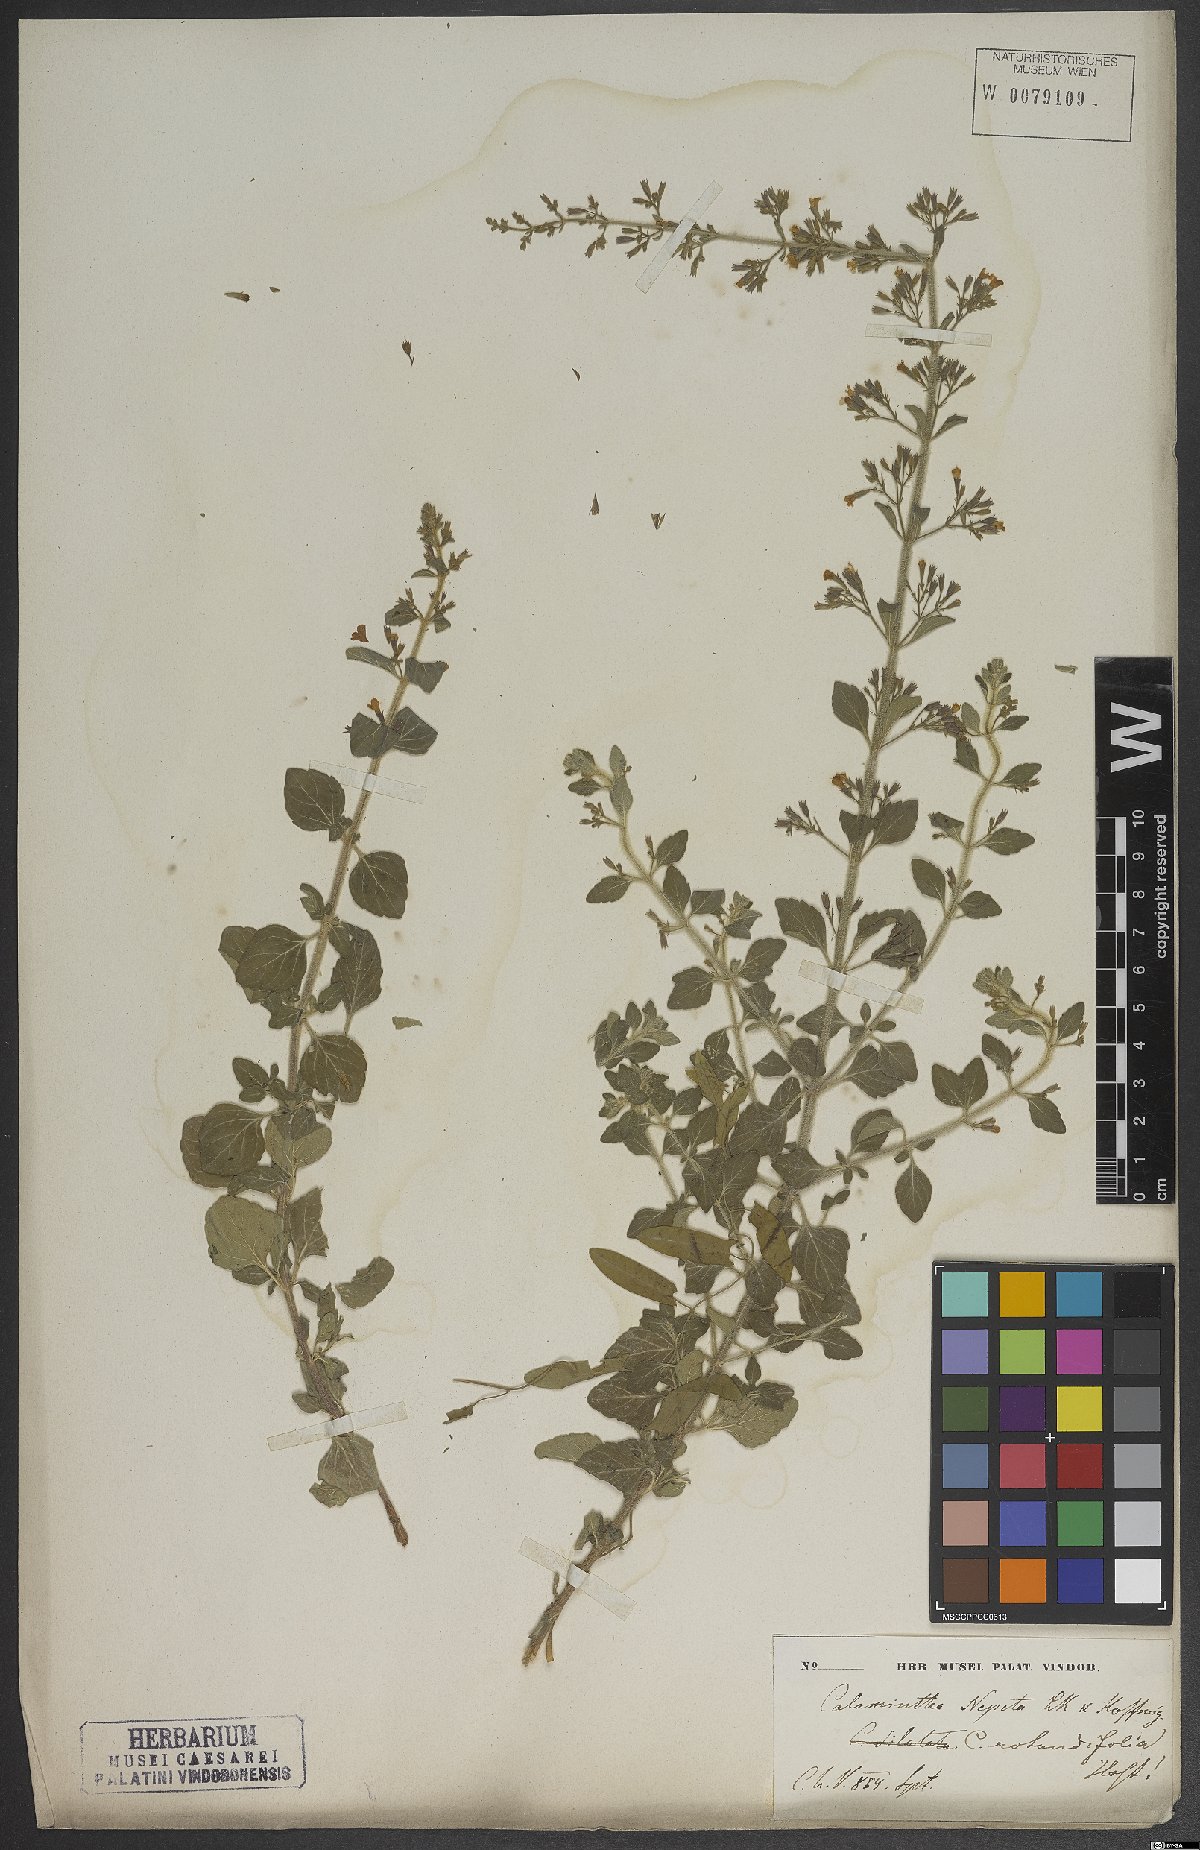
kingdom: Plantae
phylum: Tracheophyta
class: Magnoliopsida
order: Lamiales
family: Lamiaceae
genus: Clinopodium
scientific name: Clinopodium nepeta
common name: Lesser calamint
